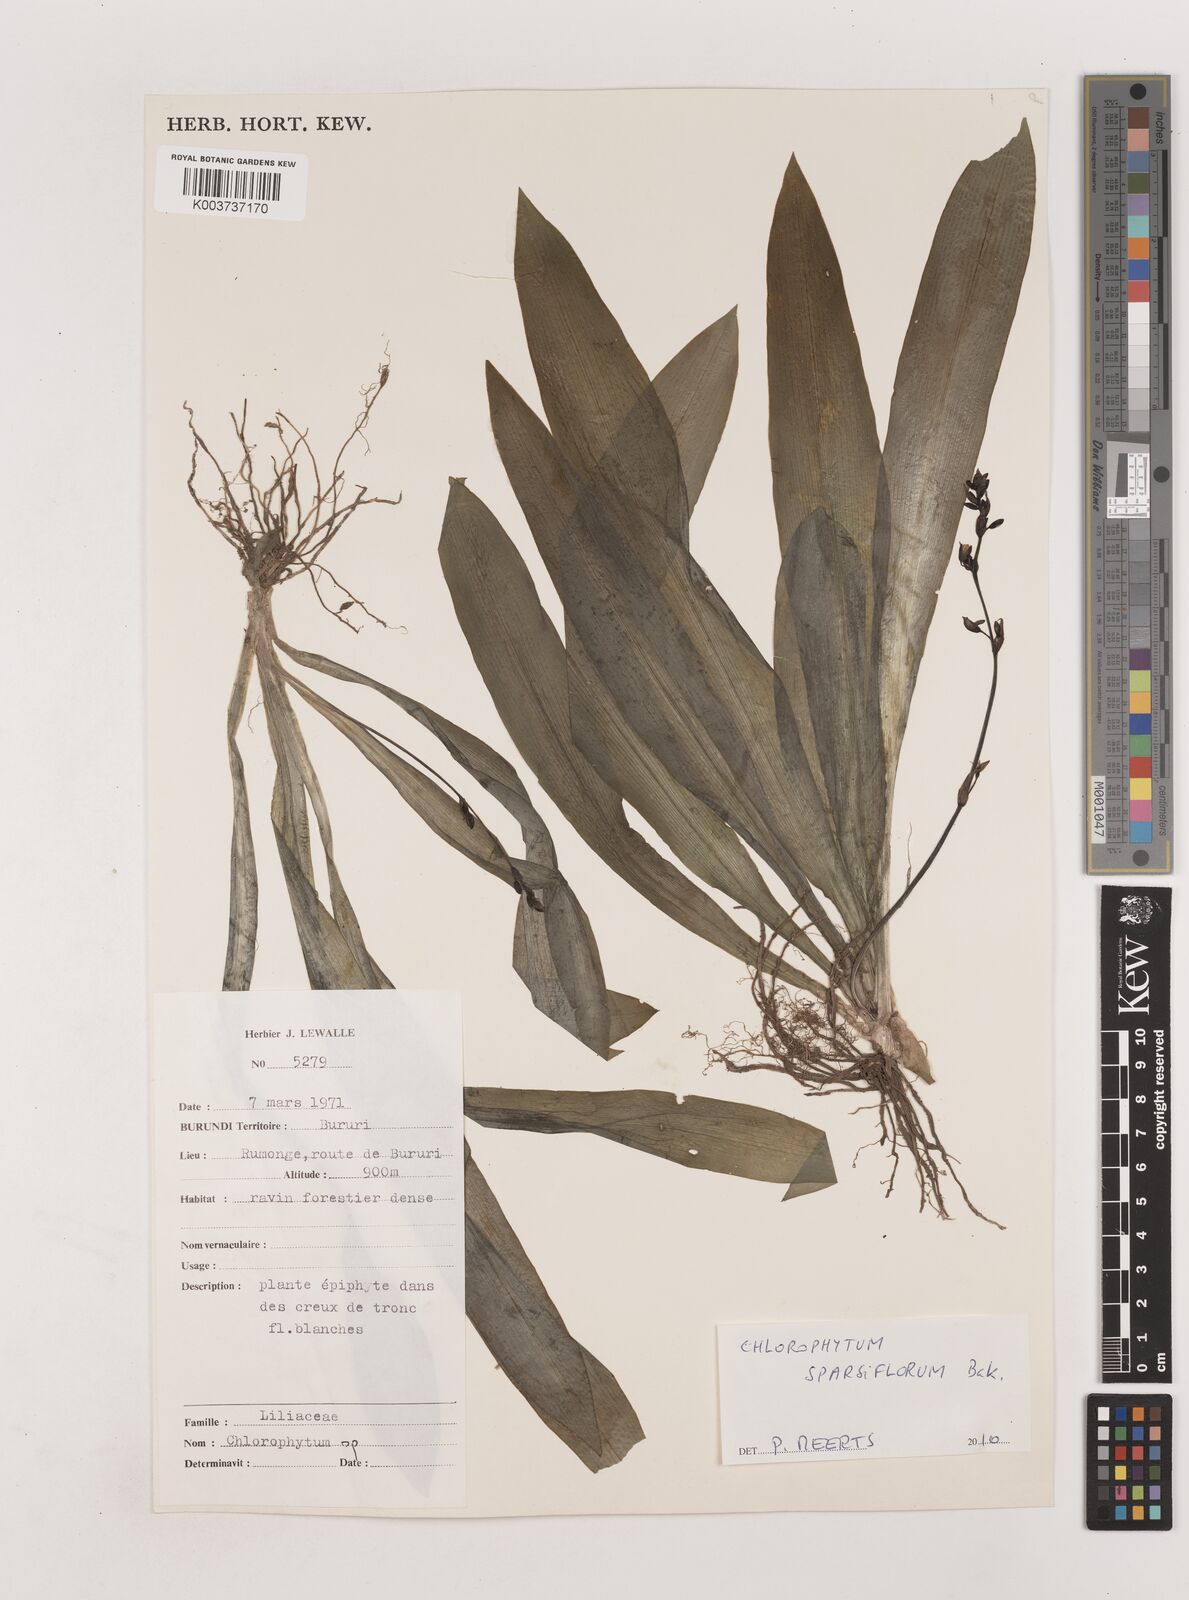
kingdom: Plantae
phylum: Tracheophyta
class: Liliopsida
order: Asparagales
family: Asparagaceae
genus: Chlorophytum
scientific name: Chlorophytum sparsiflorum
